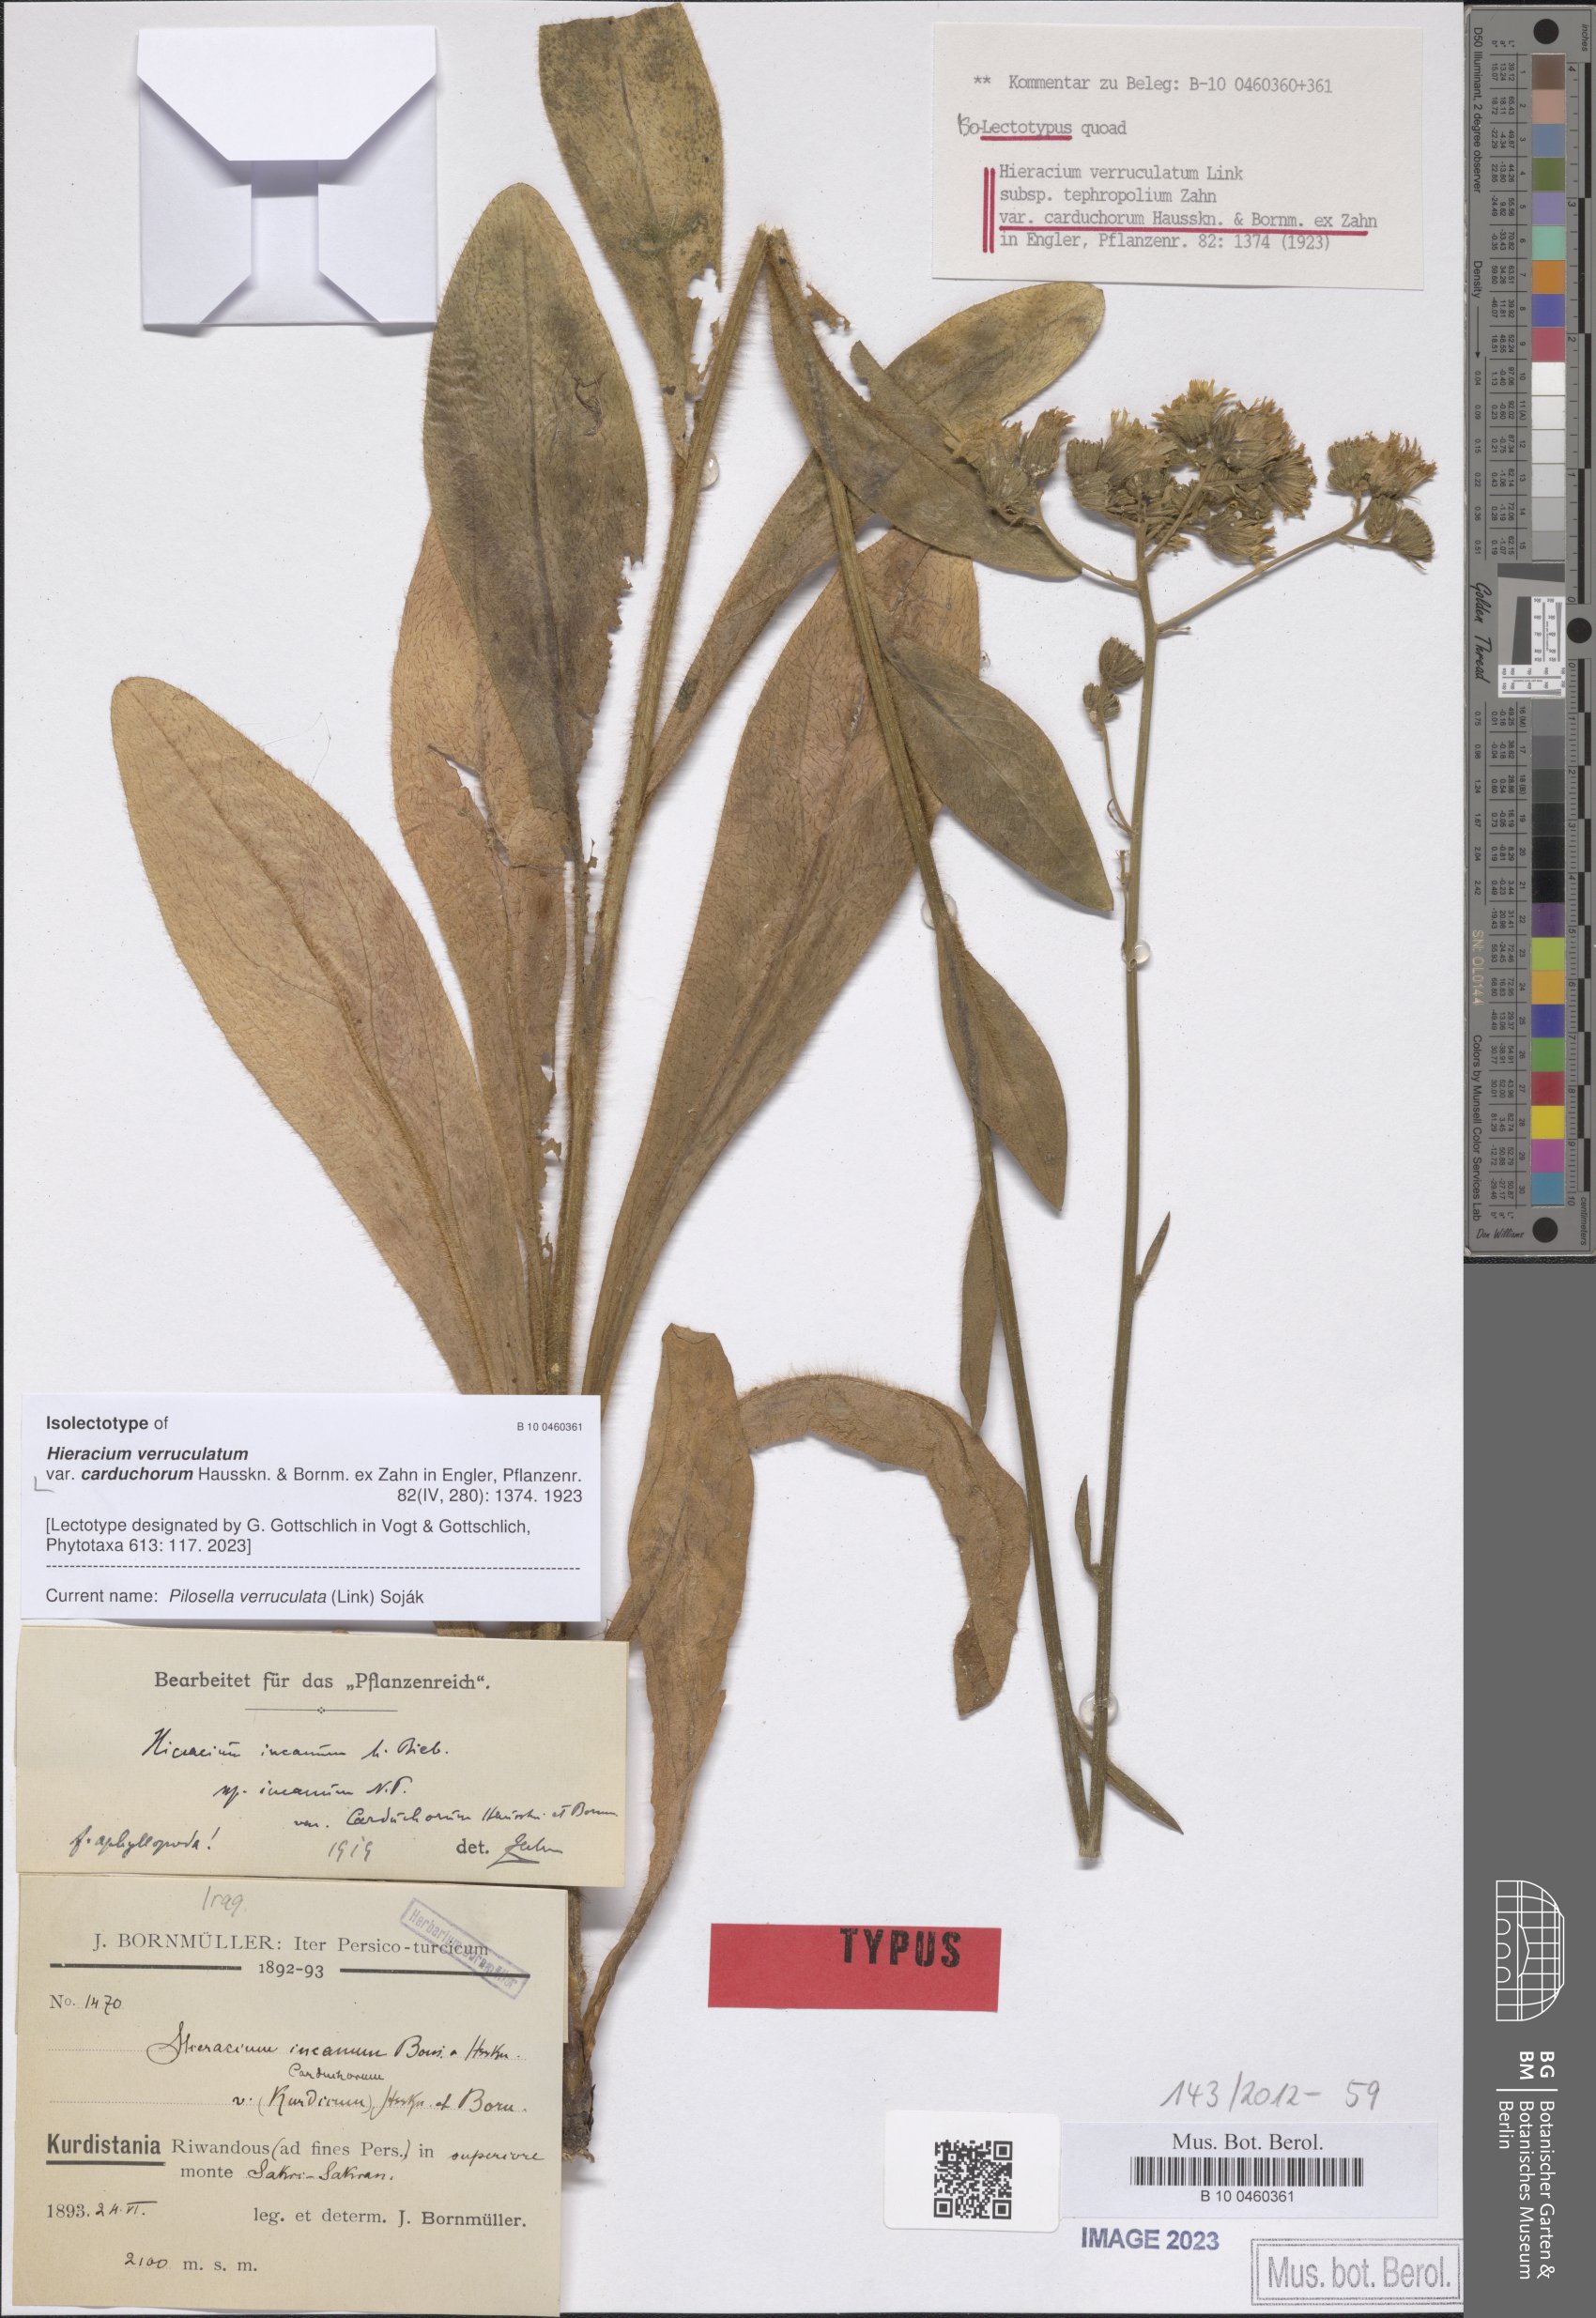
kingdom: Plantae
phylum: Tracheophyta
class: Magnoliopsida
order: Asterales
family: Asteraceae
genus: Pilosella
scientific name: Pilosella verruculata
